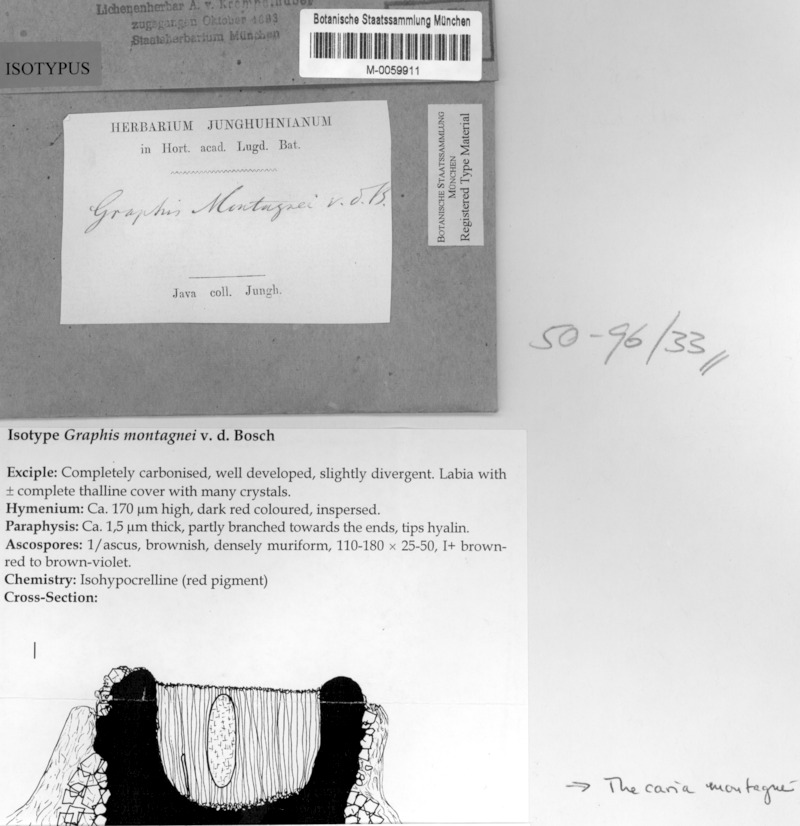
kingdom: Fungi
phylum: Ascomycota
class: Lecanoromycetes
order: Ostropales
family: Graphidaceae
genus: Pliariona
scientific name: Pliariona montagnei
